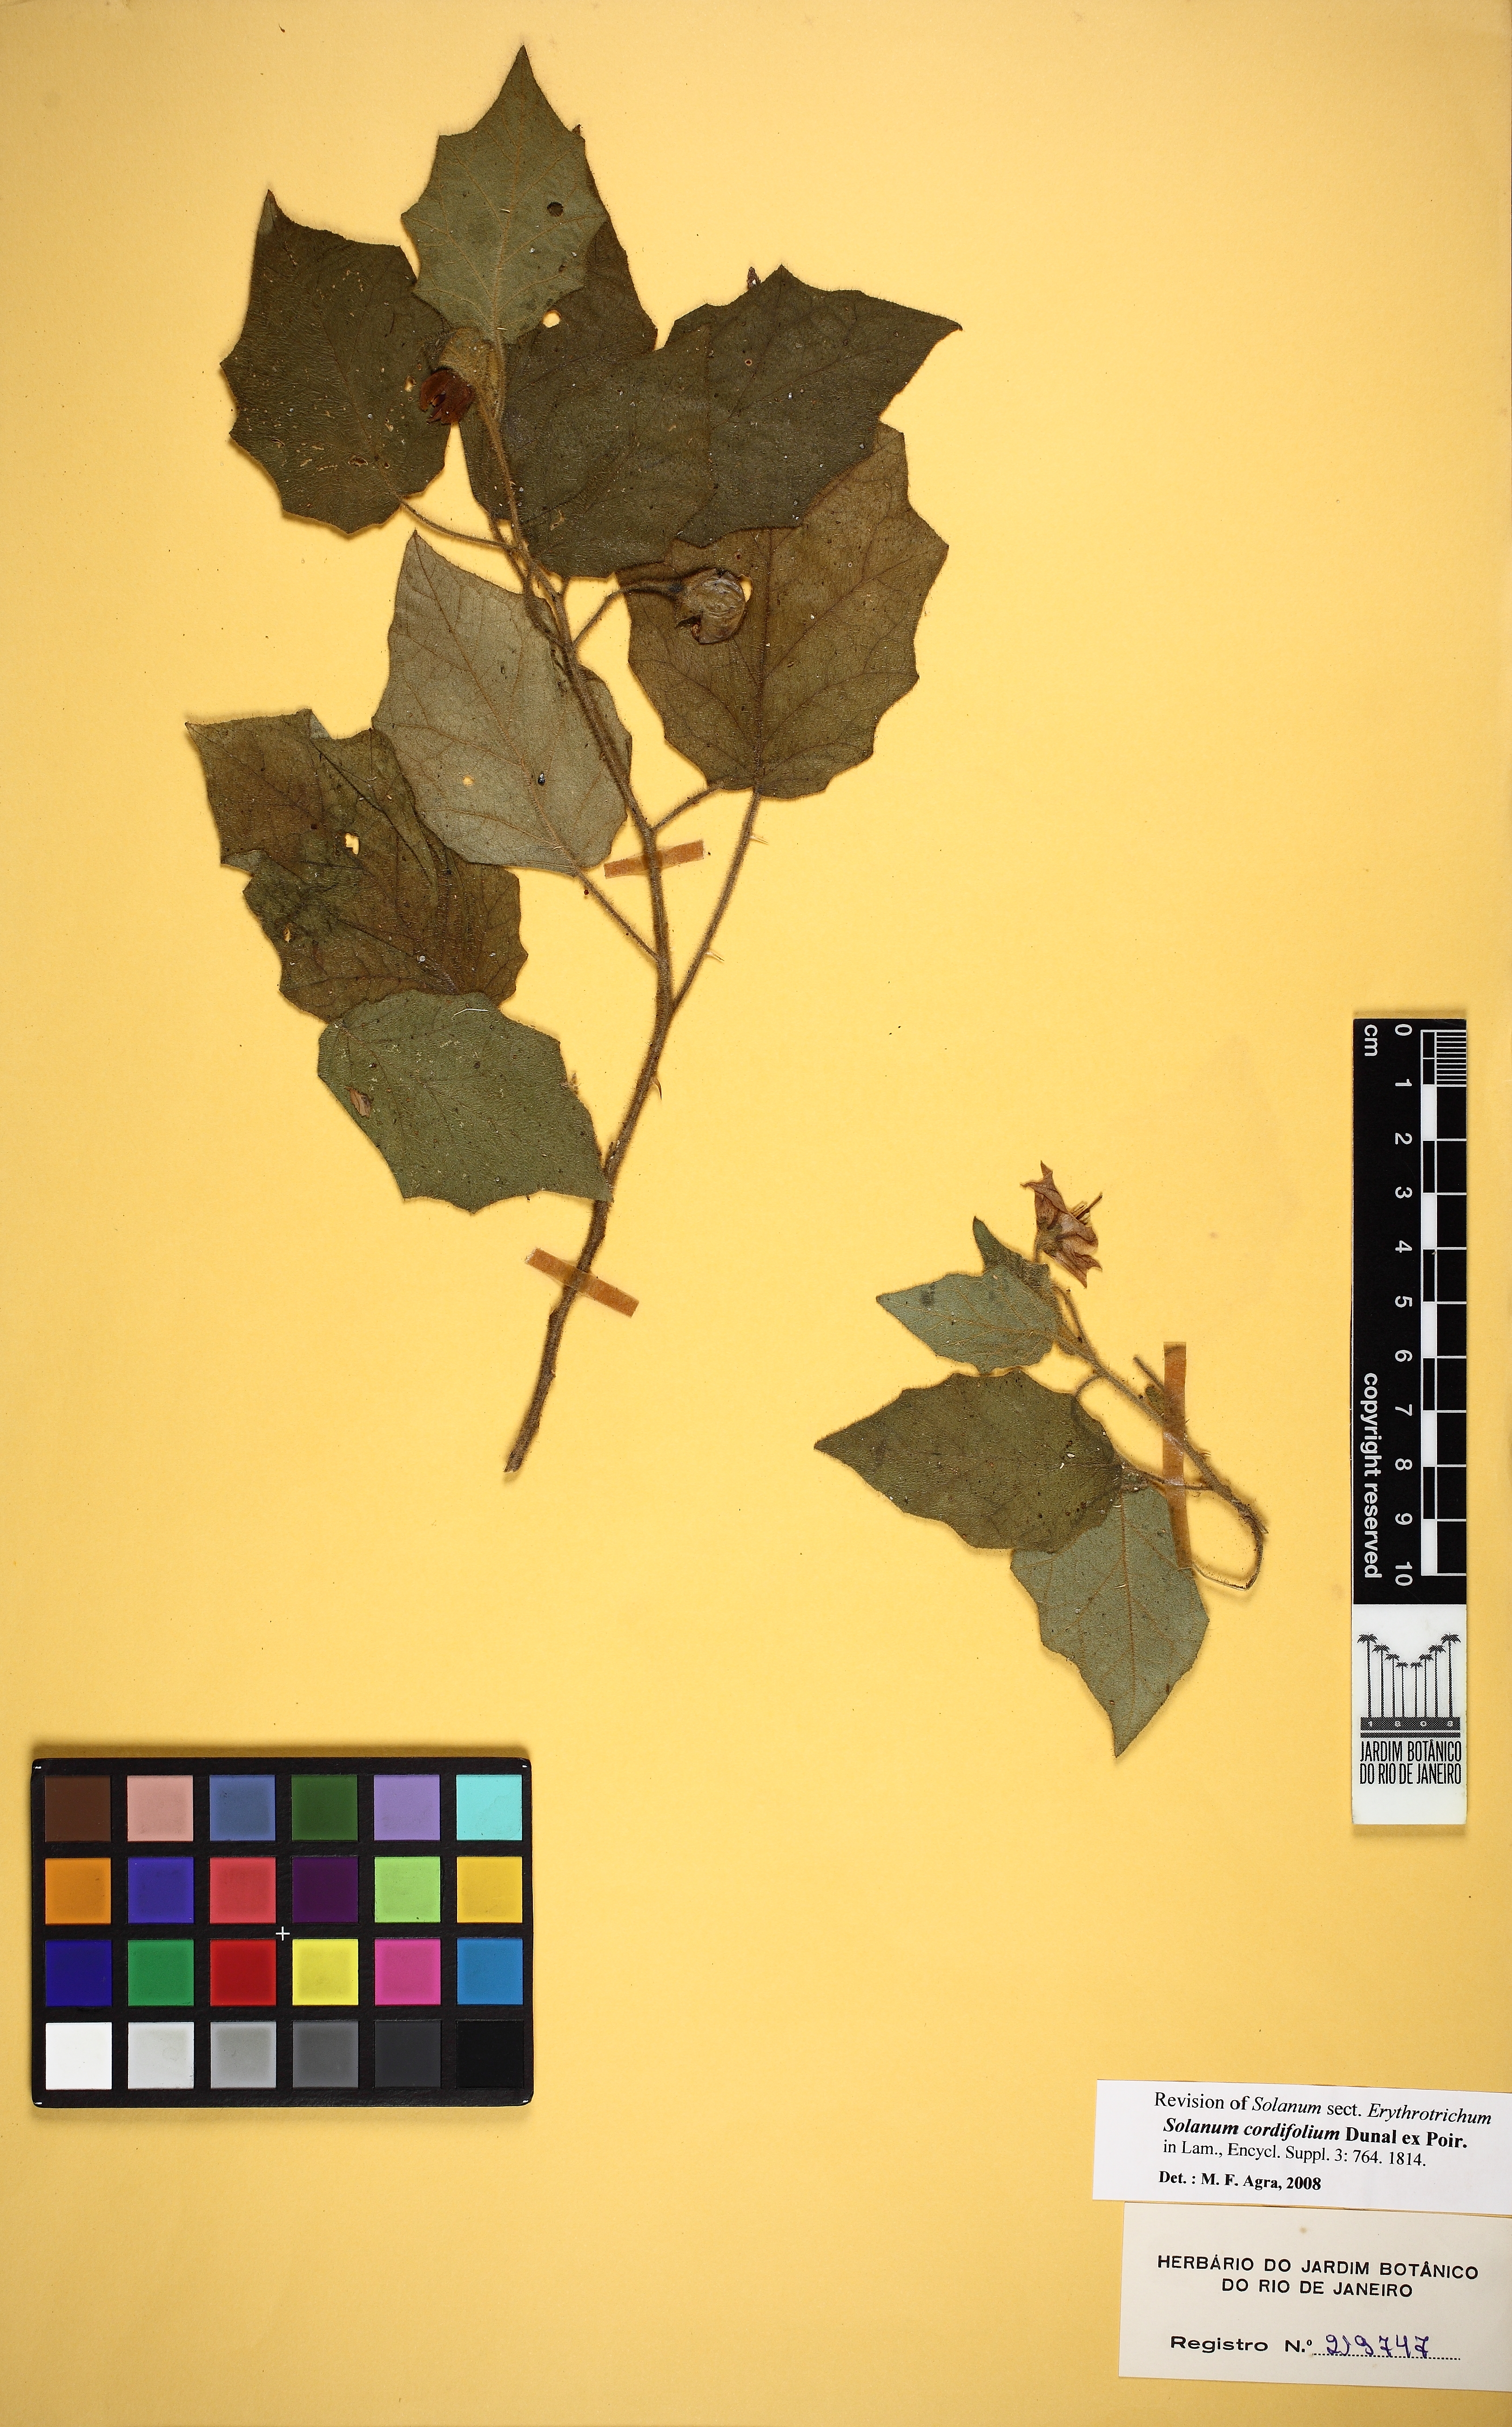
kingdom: Plantae
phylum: Tracheophyta
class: Magnoliopsida
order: Solanales
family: Solanaceae
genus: Solanum
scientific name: Solanum cordifolium
